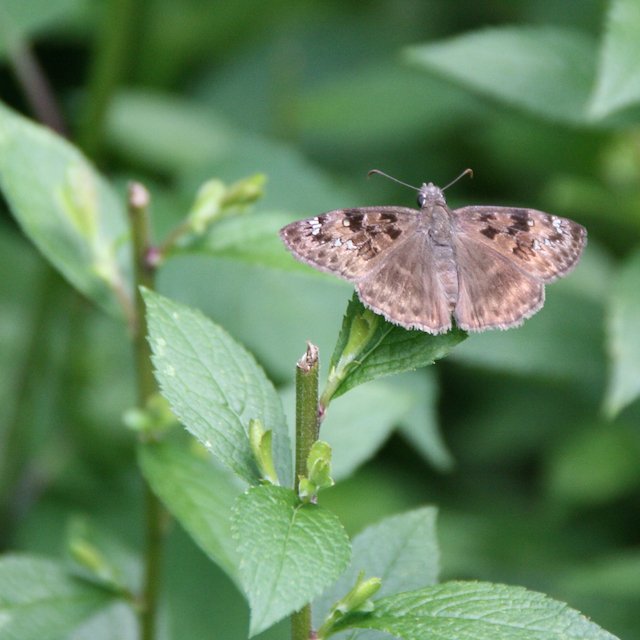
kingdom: Animalia
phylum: Arthropoda
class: Insecta
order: Lepidoptera
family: Hesperiidae
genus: Gesta
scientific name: Gesta
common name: Horace's Duskywing
